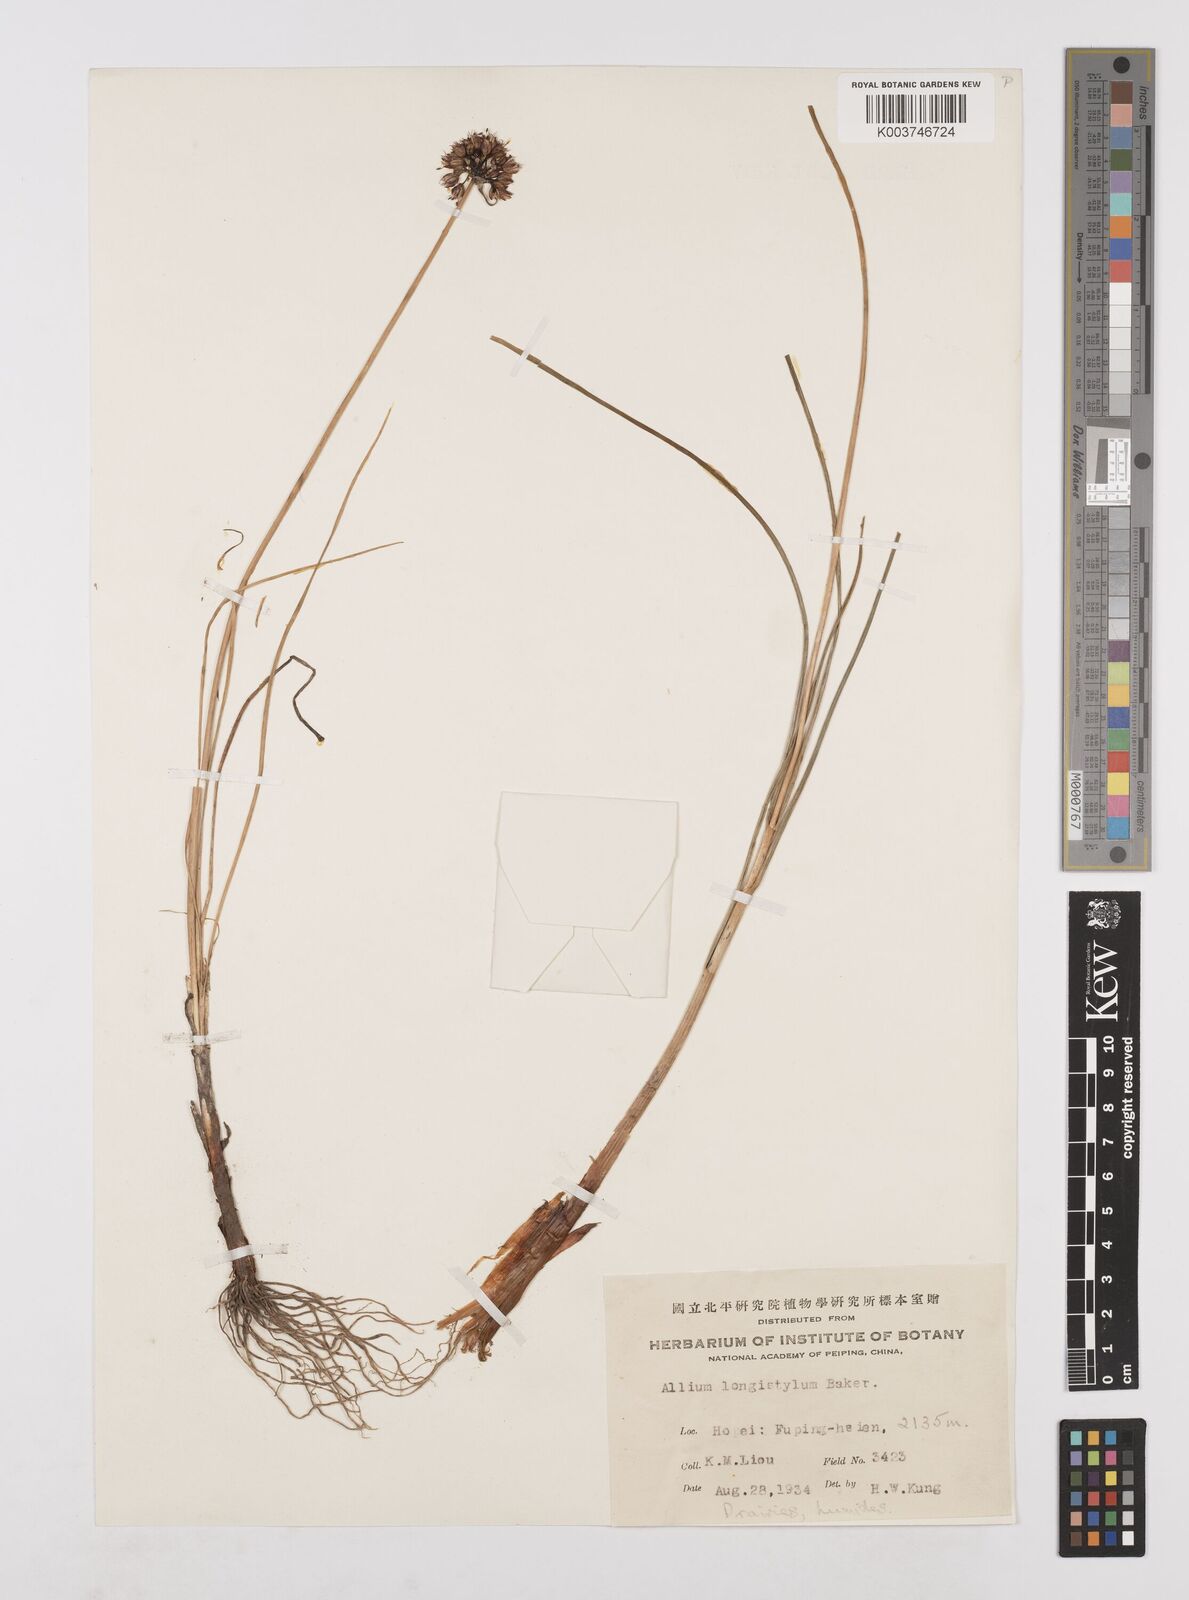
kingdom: Plantae
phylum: Tracheophyta
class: Liliopsida
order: Asparagales
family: Amaryllidaceae
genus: Allium
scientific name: Allium longistylum
